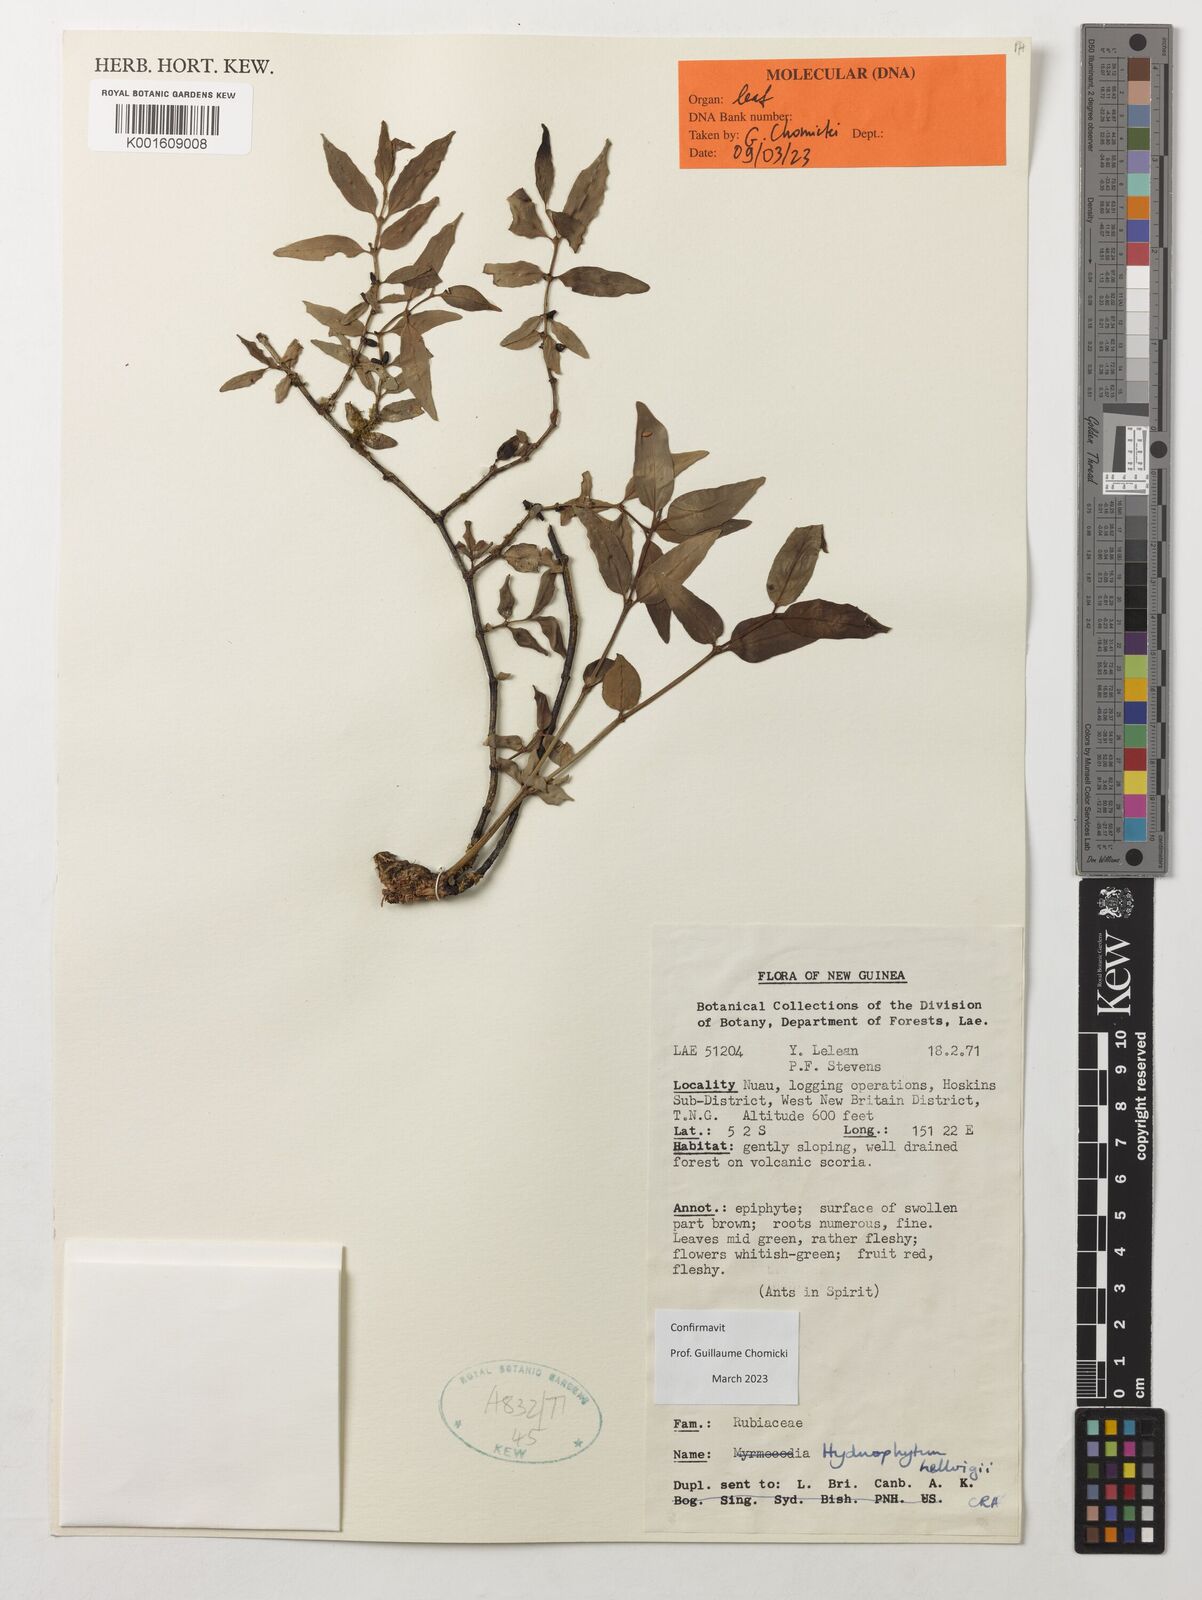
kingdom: Plantae
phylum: Tracheophyta
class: Magnoliopsida
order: Gentianales
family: Rubiaceae
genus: Hydnophytum
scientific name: Hydnophytum hellwigii
